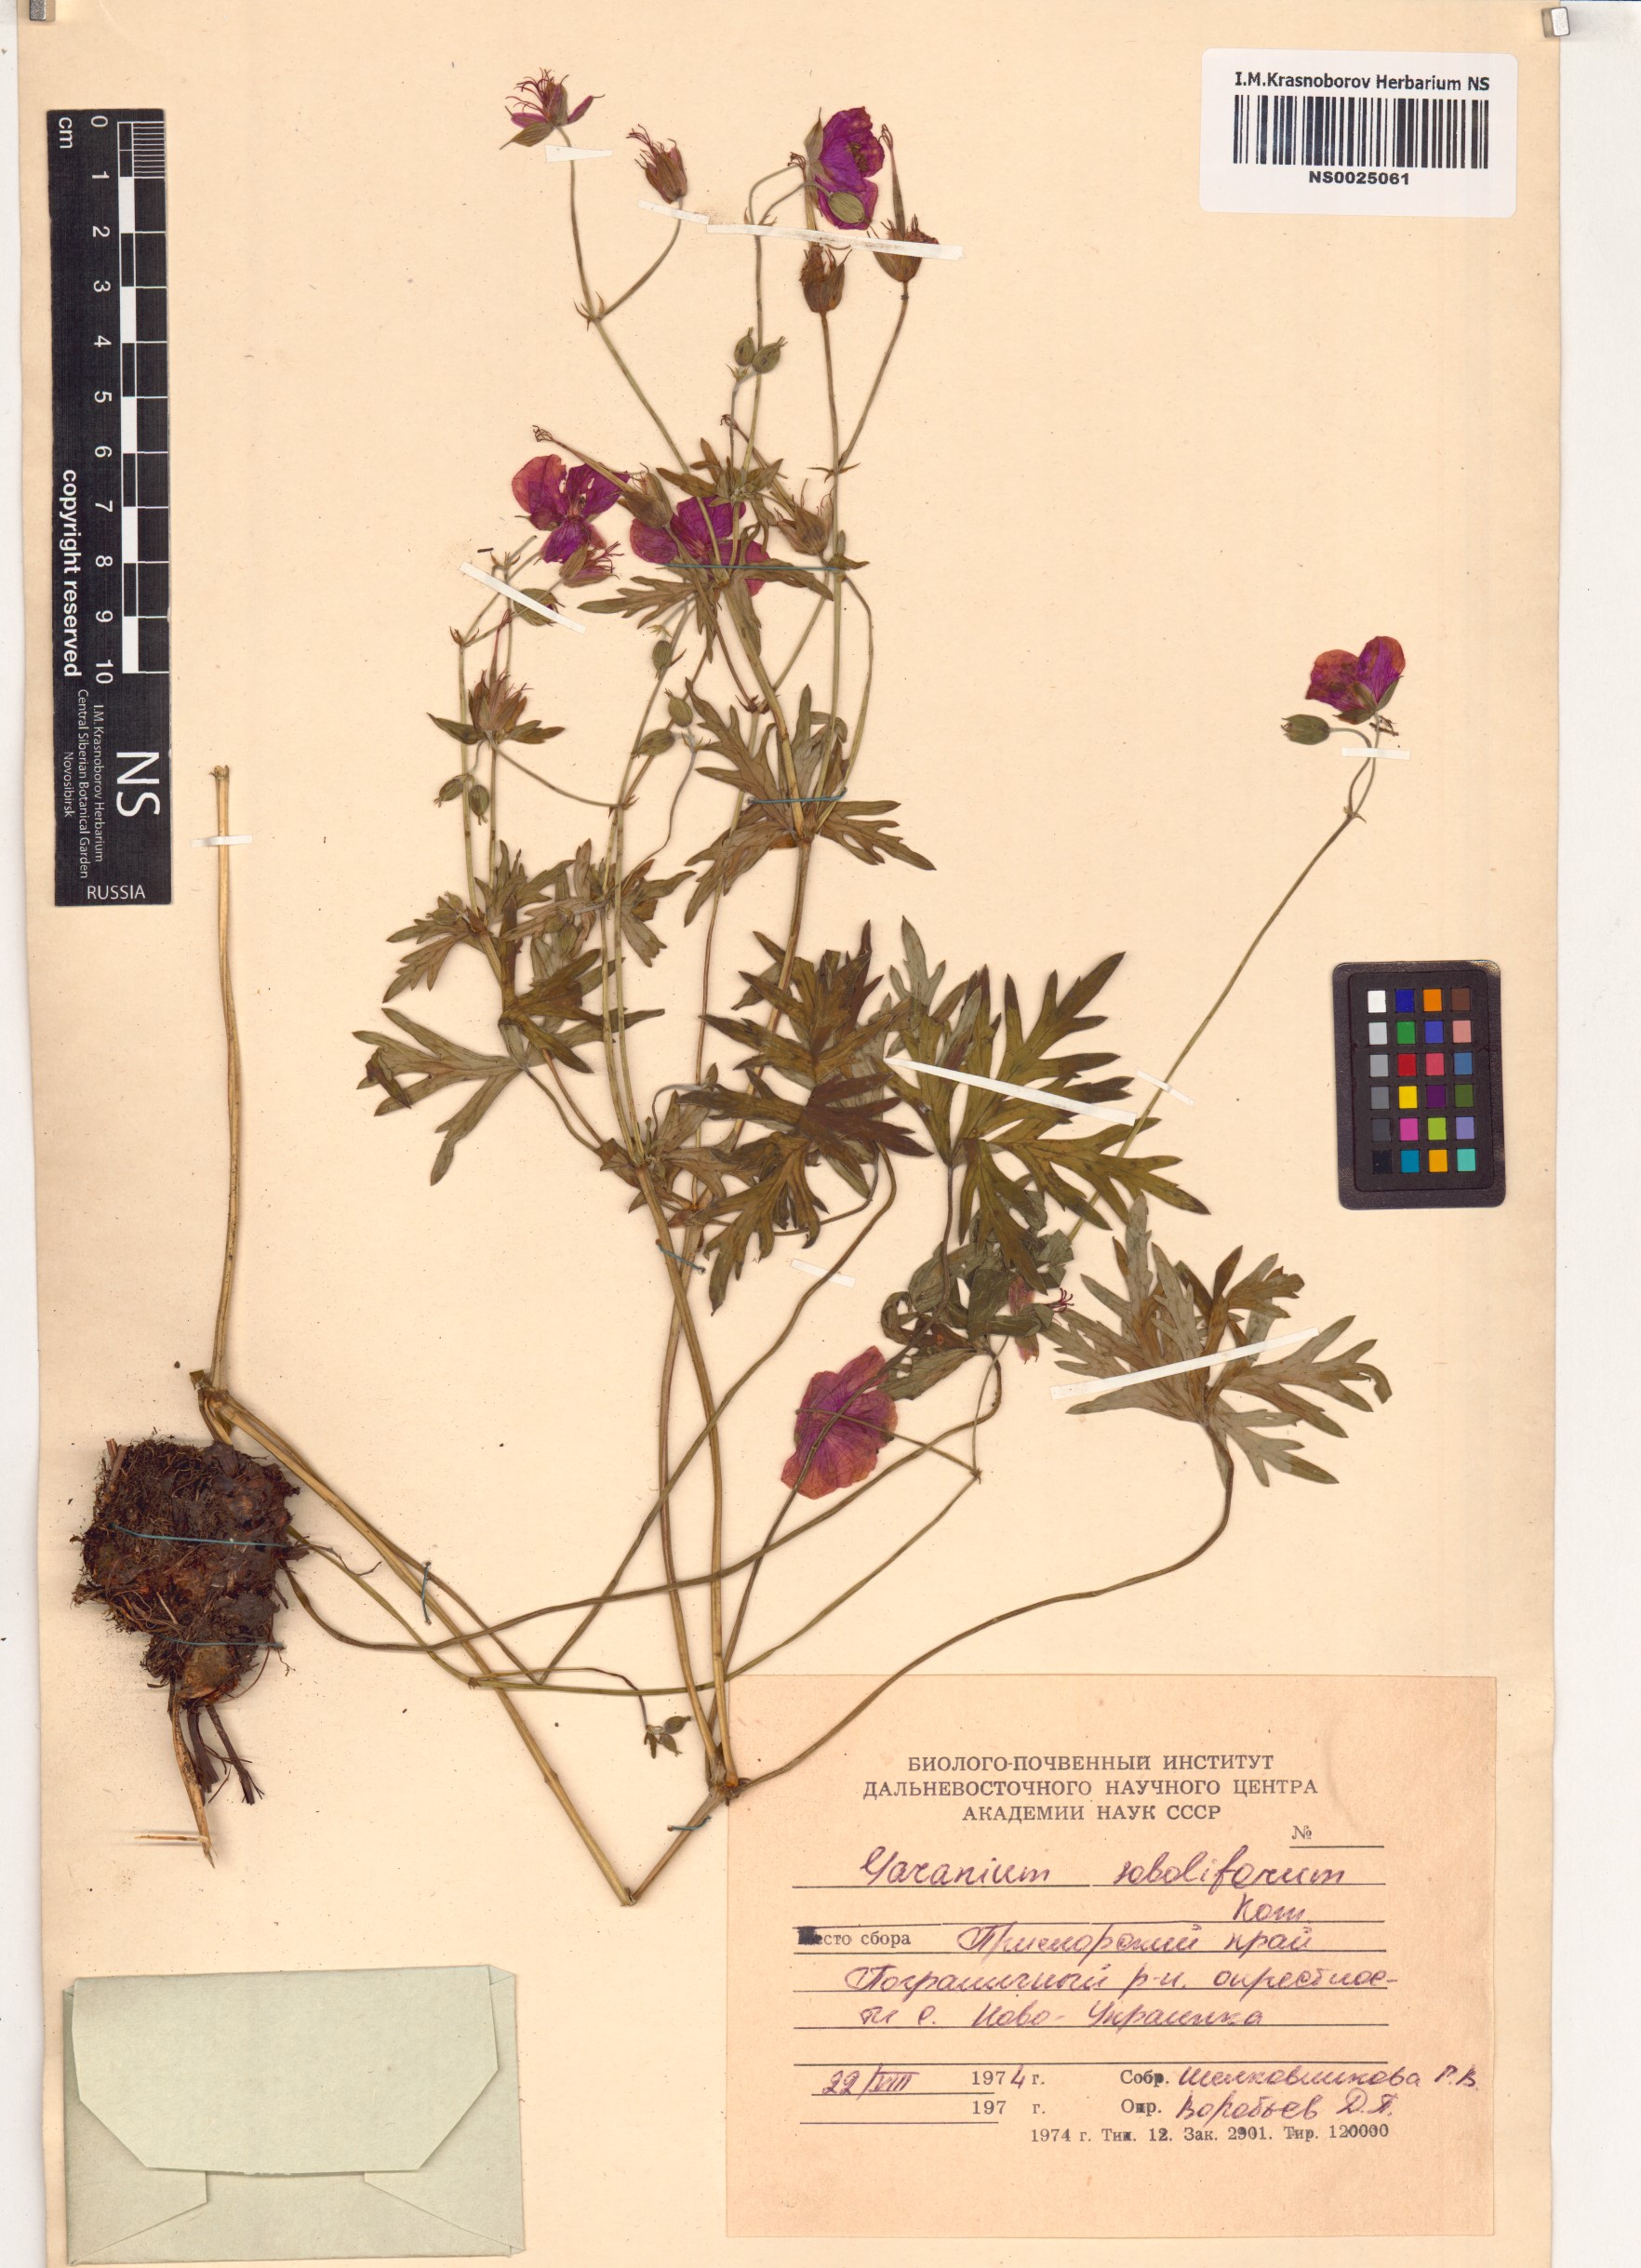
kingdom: Plantae
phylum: Tracheophyta
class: Magnoliopsida
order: Geraniales
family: Geraniaceae
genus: Geranium
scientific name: Geranium soboliferum
